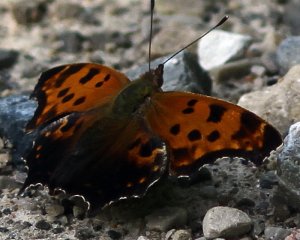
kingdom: Animalia
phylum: Arthropoda
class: Insecta
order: Lepidoptera
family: Nymphalidae
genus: Polygonia
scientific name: Polygonia comma
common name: Eastern Comma
